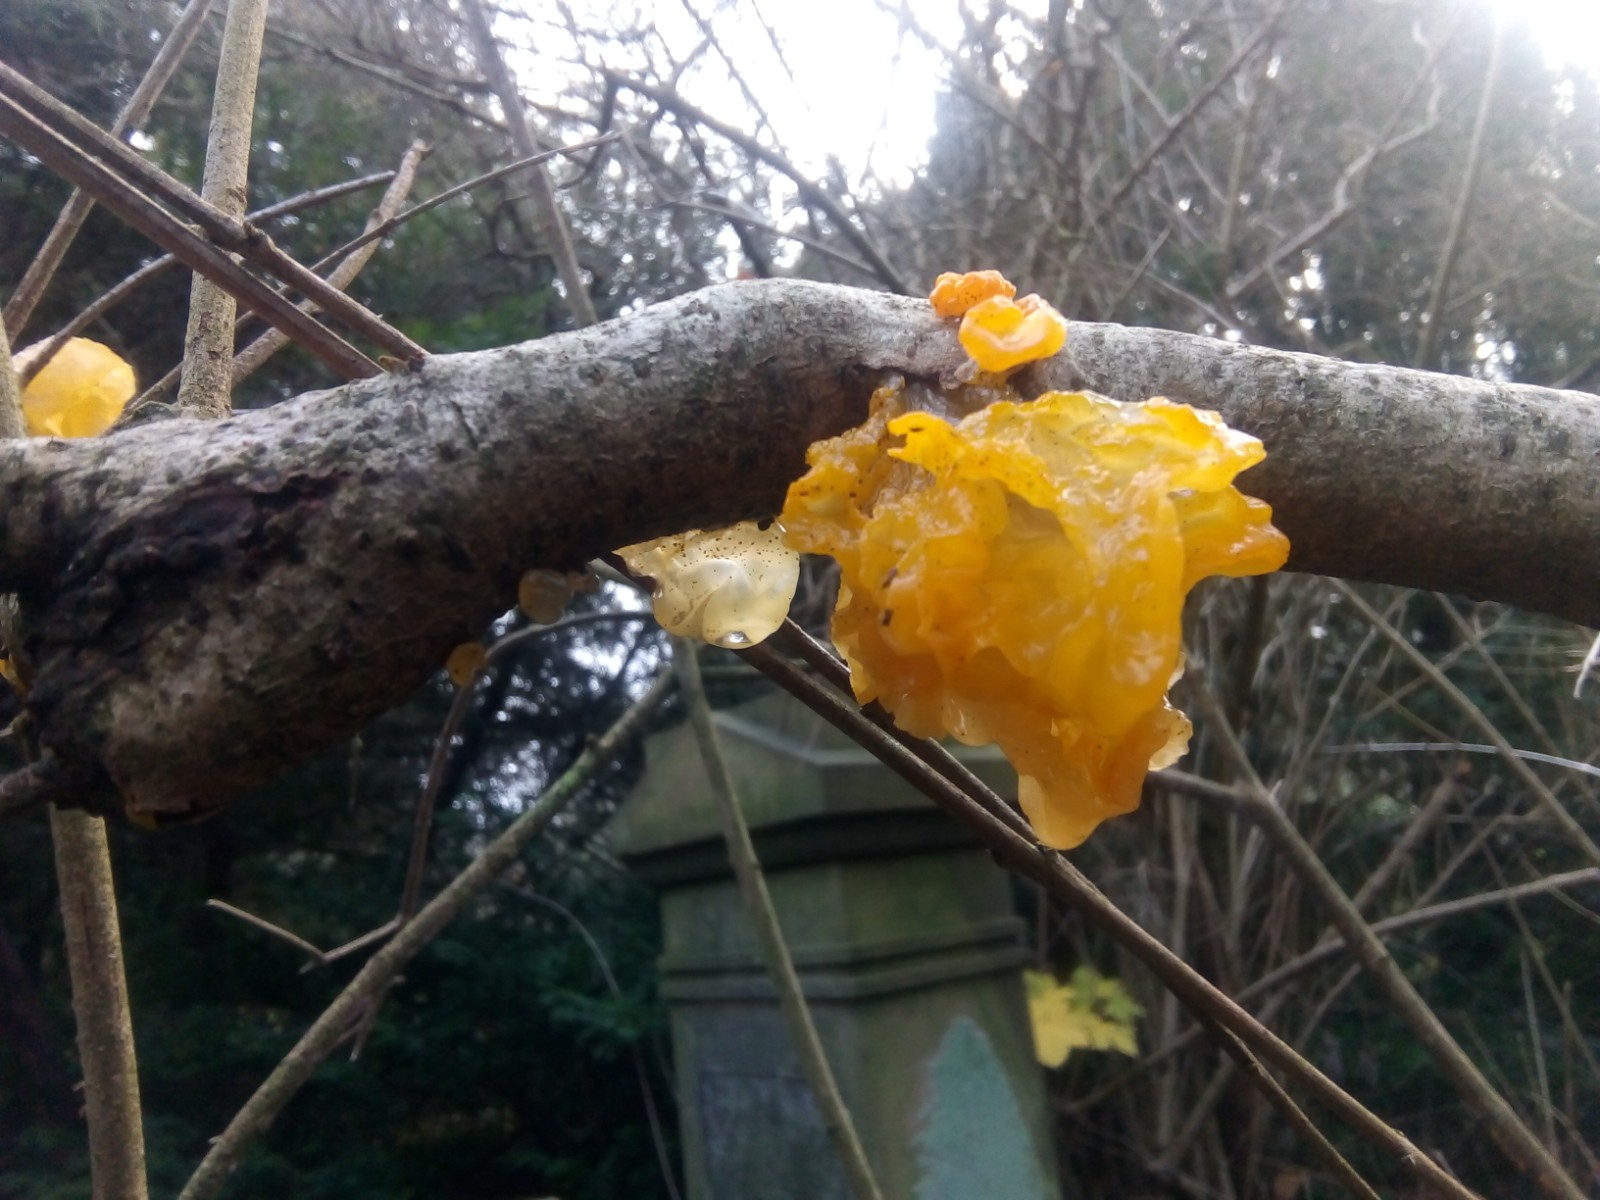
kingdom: Fungi
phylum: Basidiomycota
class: Tremellomycetes
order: Tremellales
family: Tremellaceae
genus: Tremella
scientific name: Tremella mesenterica
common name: gul bævresvamp
